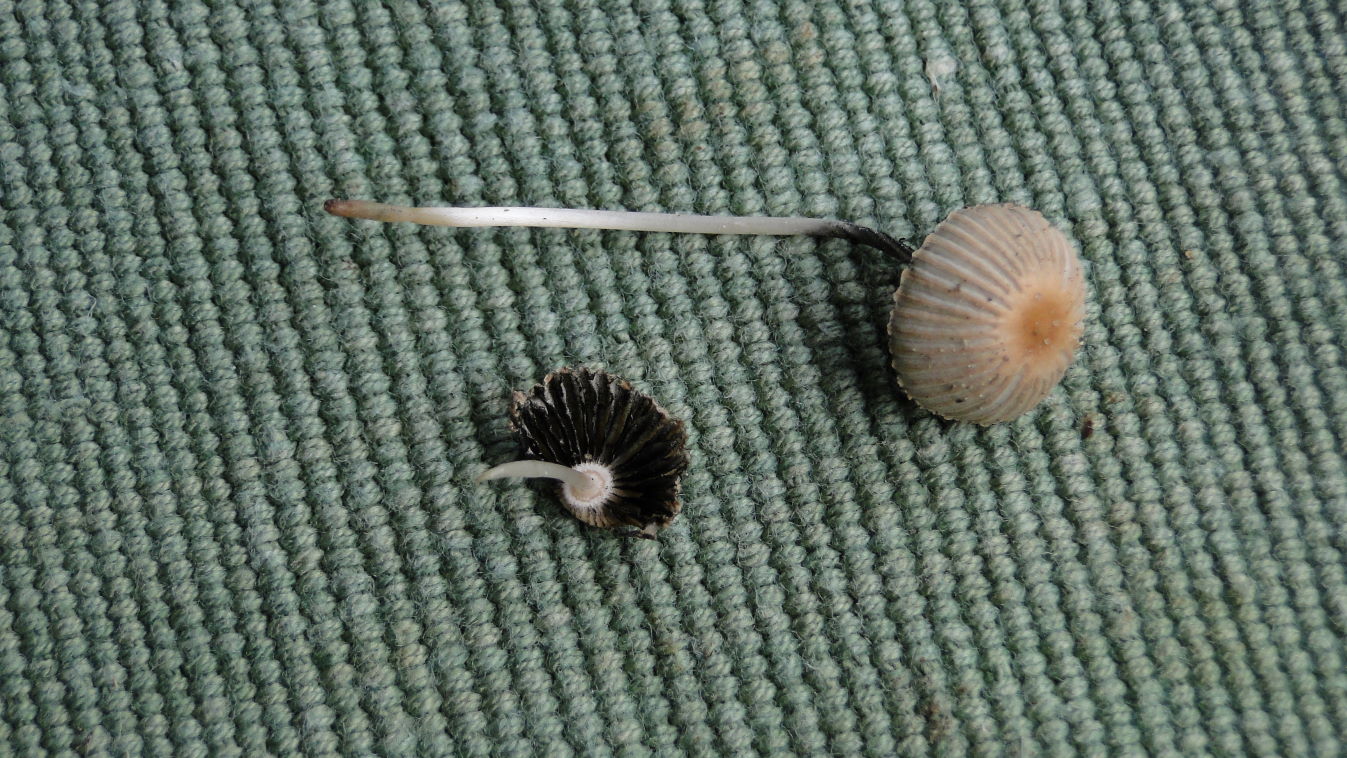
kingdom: Fungi
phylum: Basidiomycota
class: Agaricomycetes
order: Agaricales
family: Psathyrellaceae
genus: Parasola
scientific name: Parasola plicatilis
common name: plæne-hjulhat
